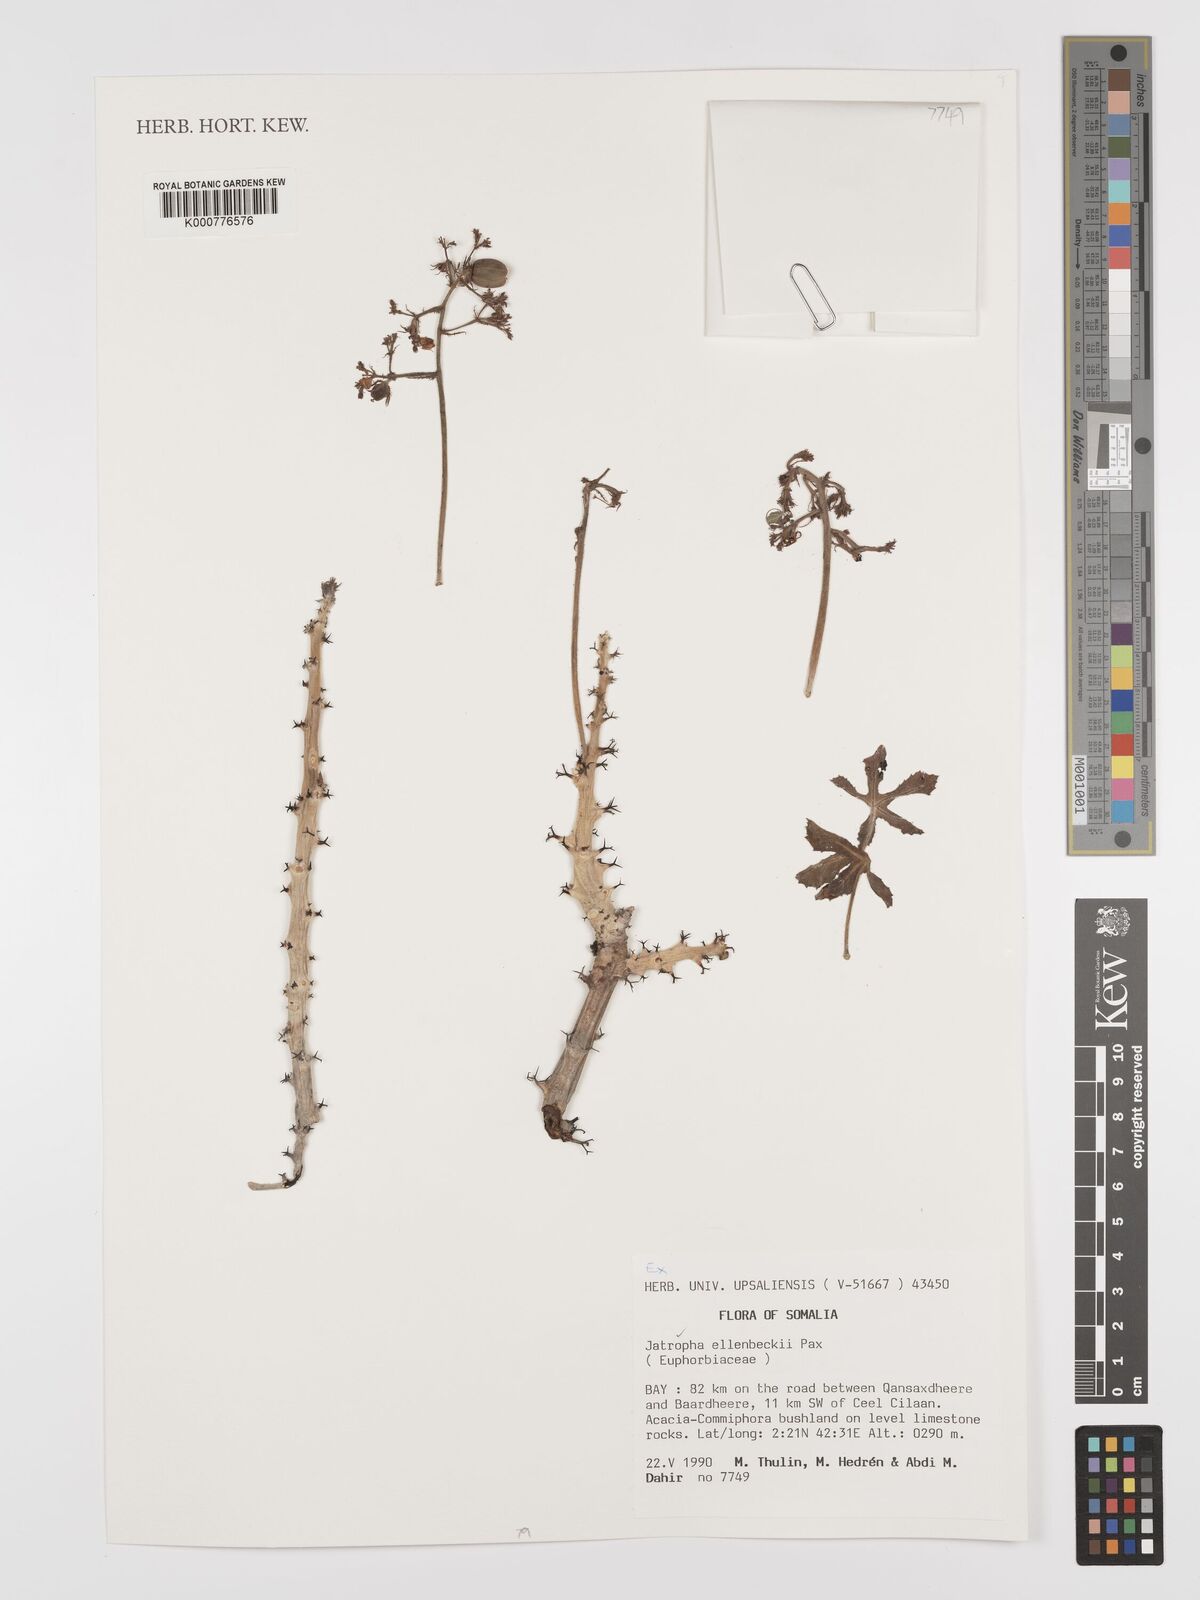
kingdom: Plantae
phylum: Tracheophyta
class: Magnoliopsida
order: Malpighiales
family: Euphorbiaceae
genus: Jatropha
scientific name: Jatropha ellenbeckii
